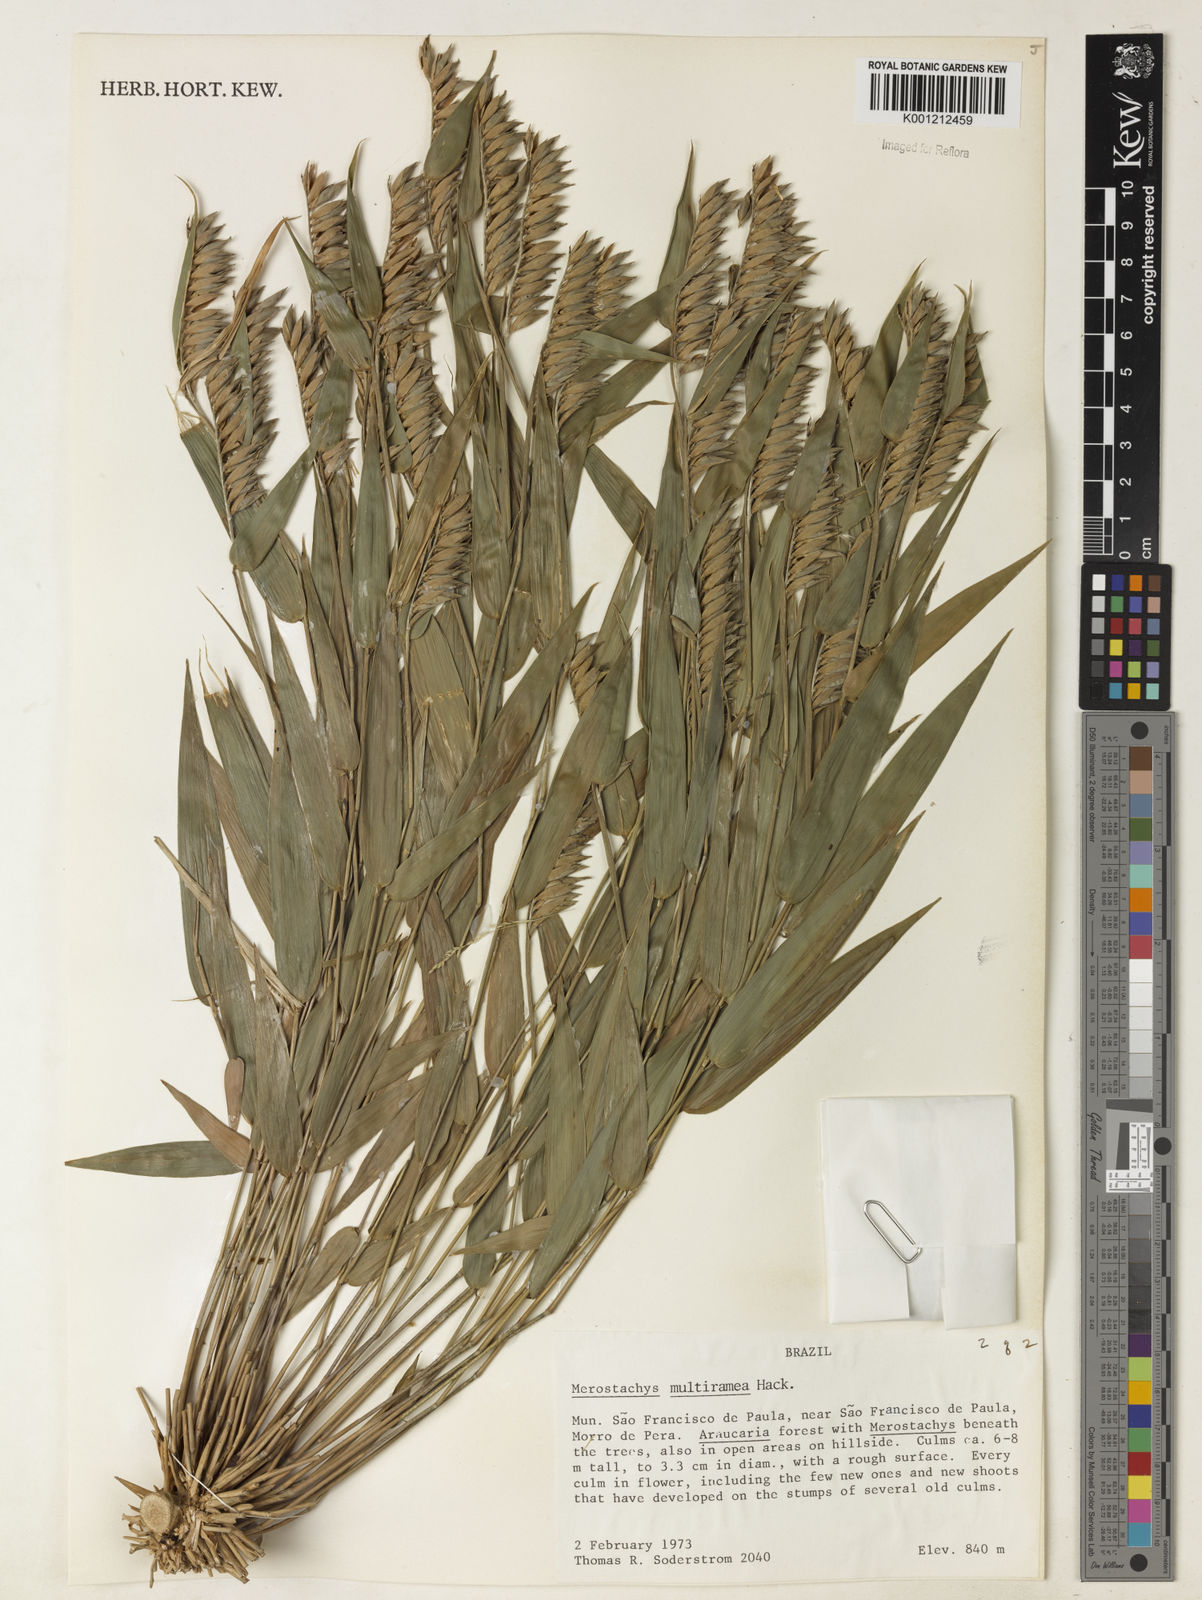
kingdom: Plantae
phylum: Tracheophyta
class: Liliopsida
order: Poales
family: Poaceae
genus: Merostachys
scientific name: Merostachys multiramea
